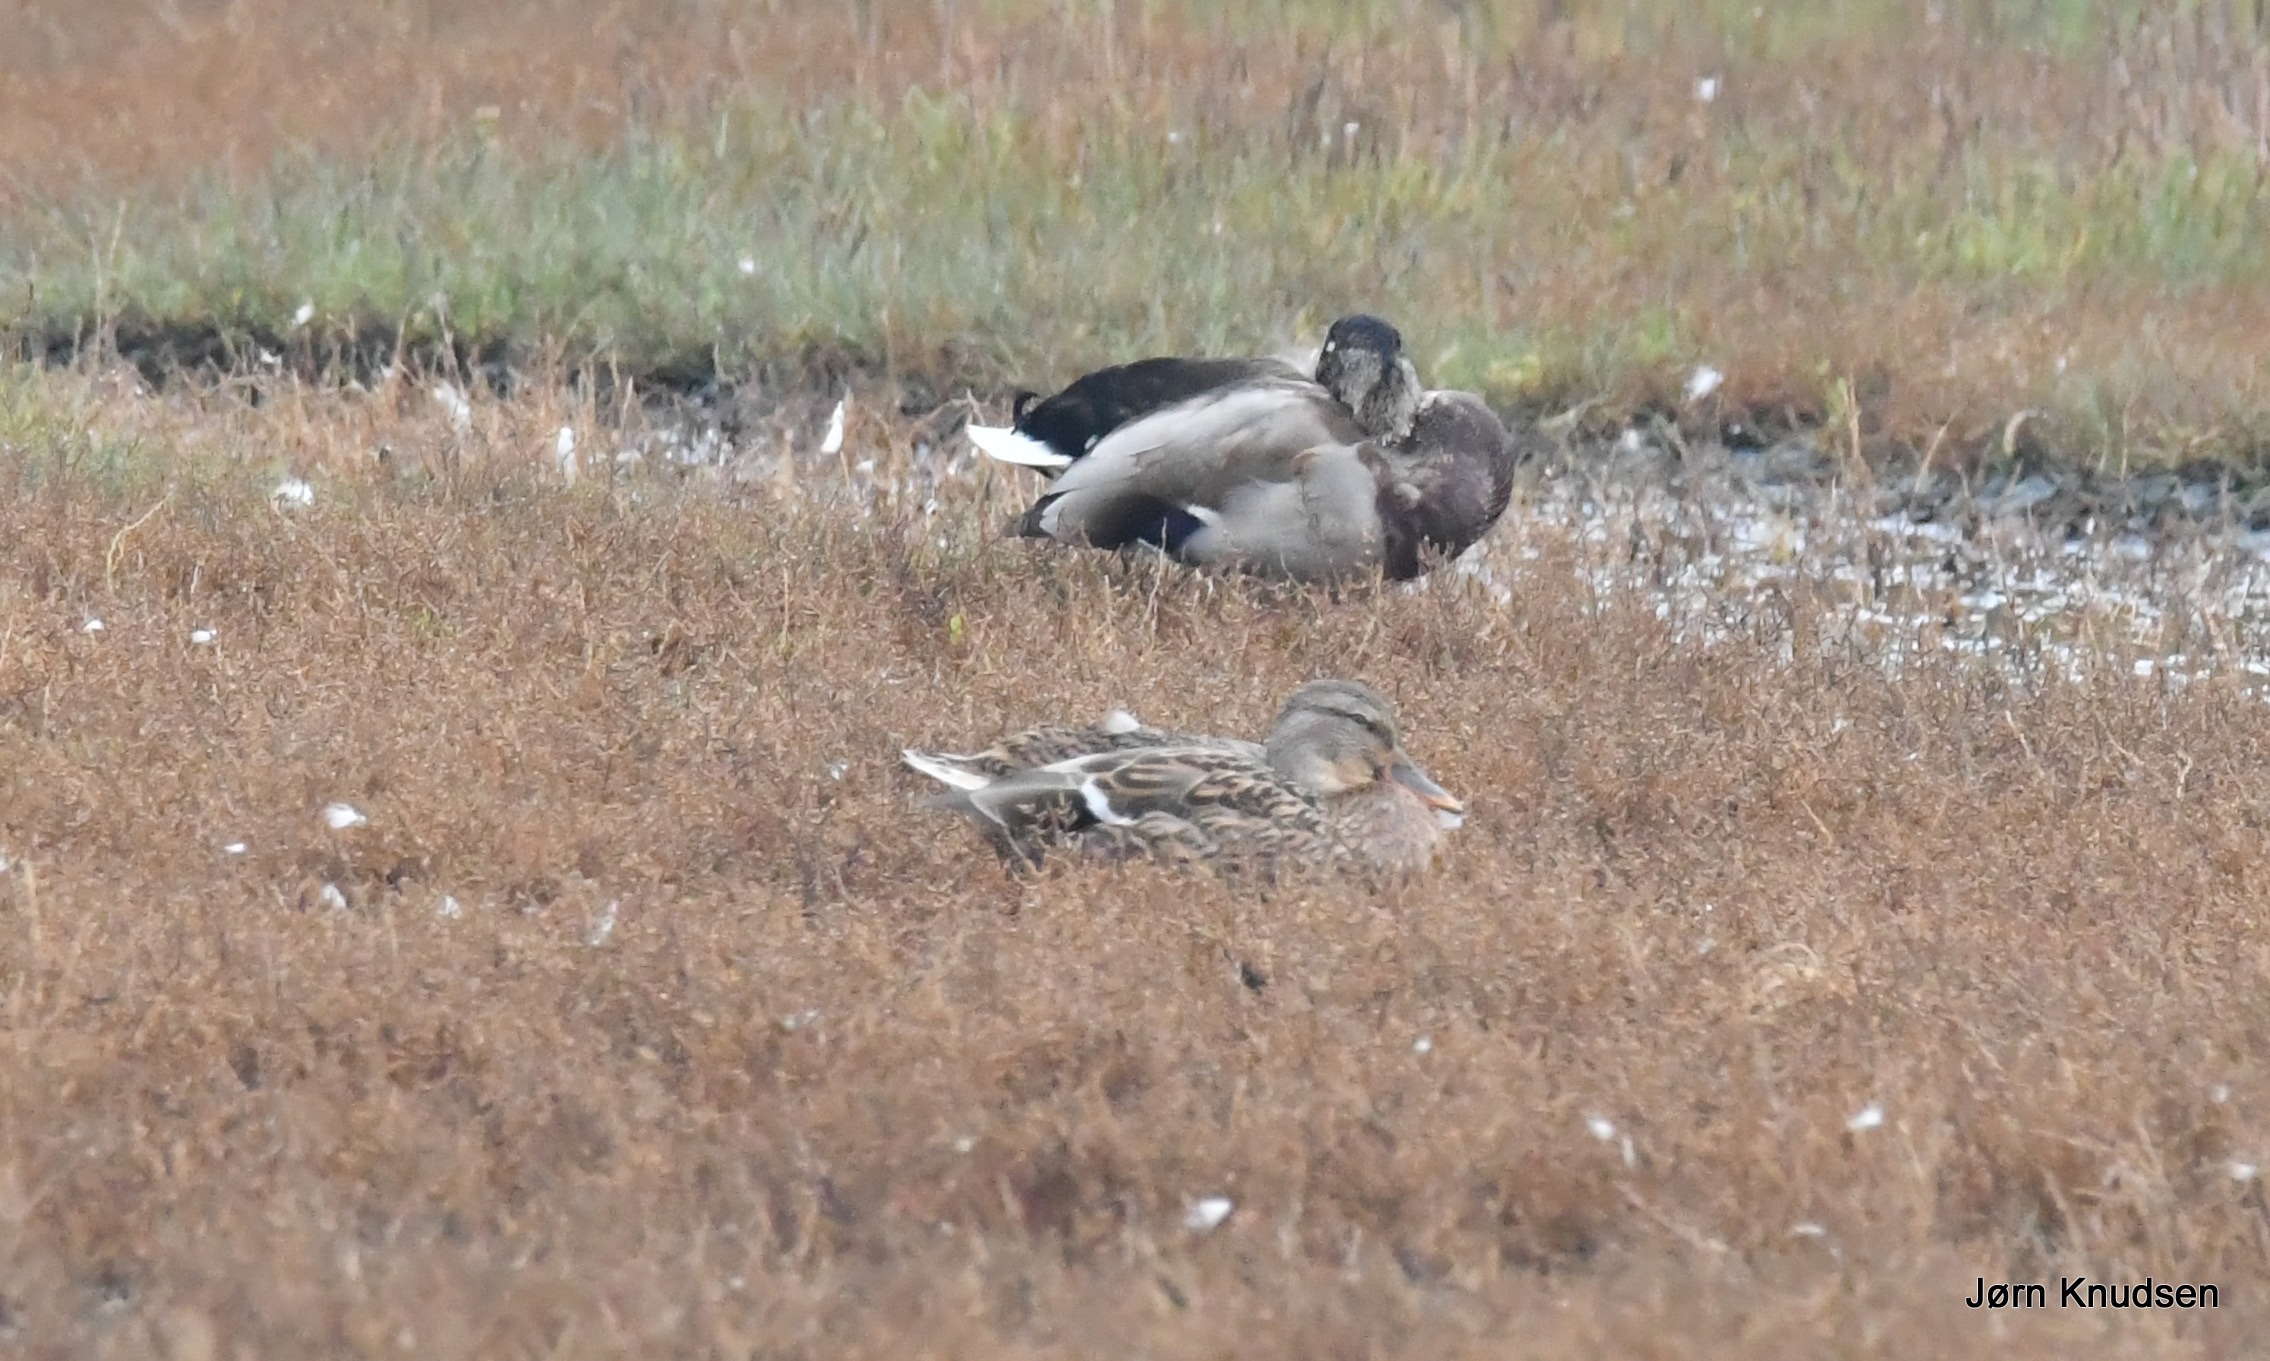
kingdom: Animalia
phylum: Chordata
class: Aves
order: Anseriformes
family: Anatidae
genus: Anas
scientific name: Anas platyrhynchos
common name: Gråand
